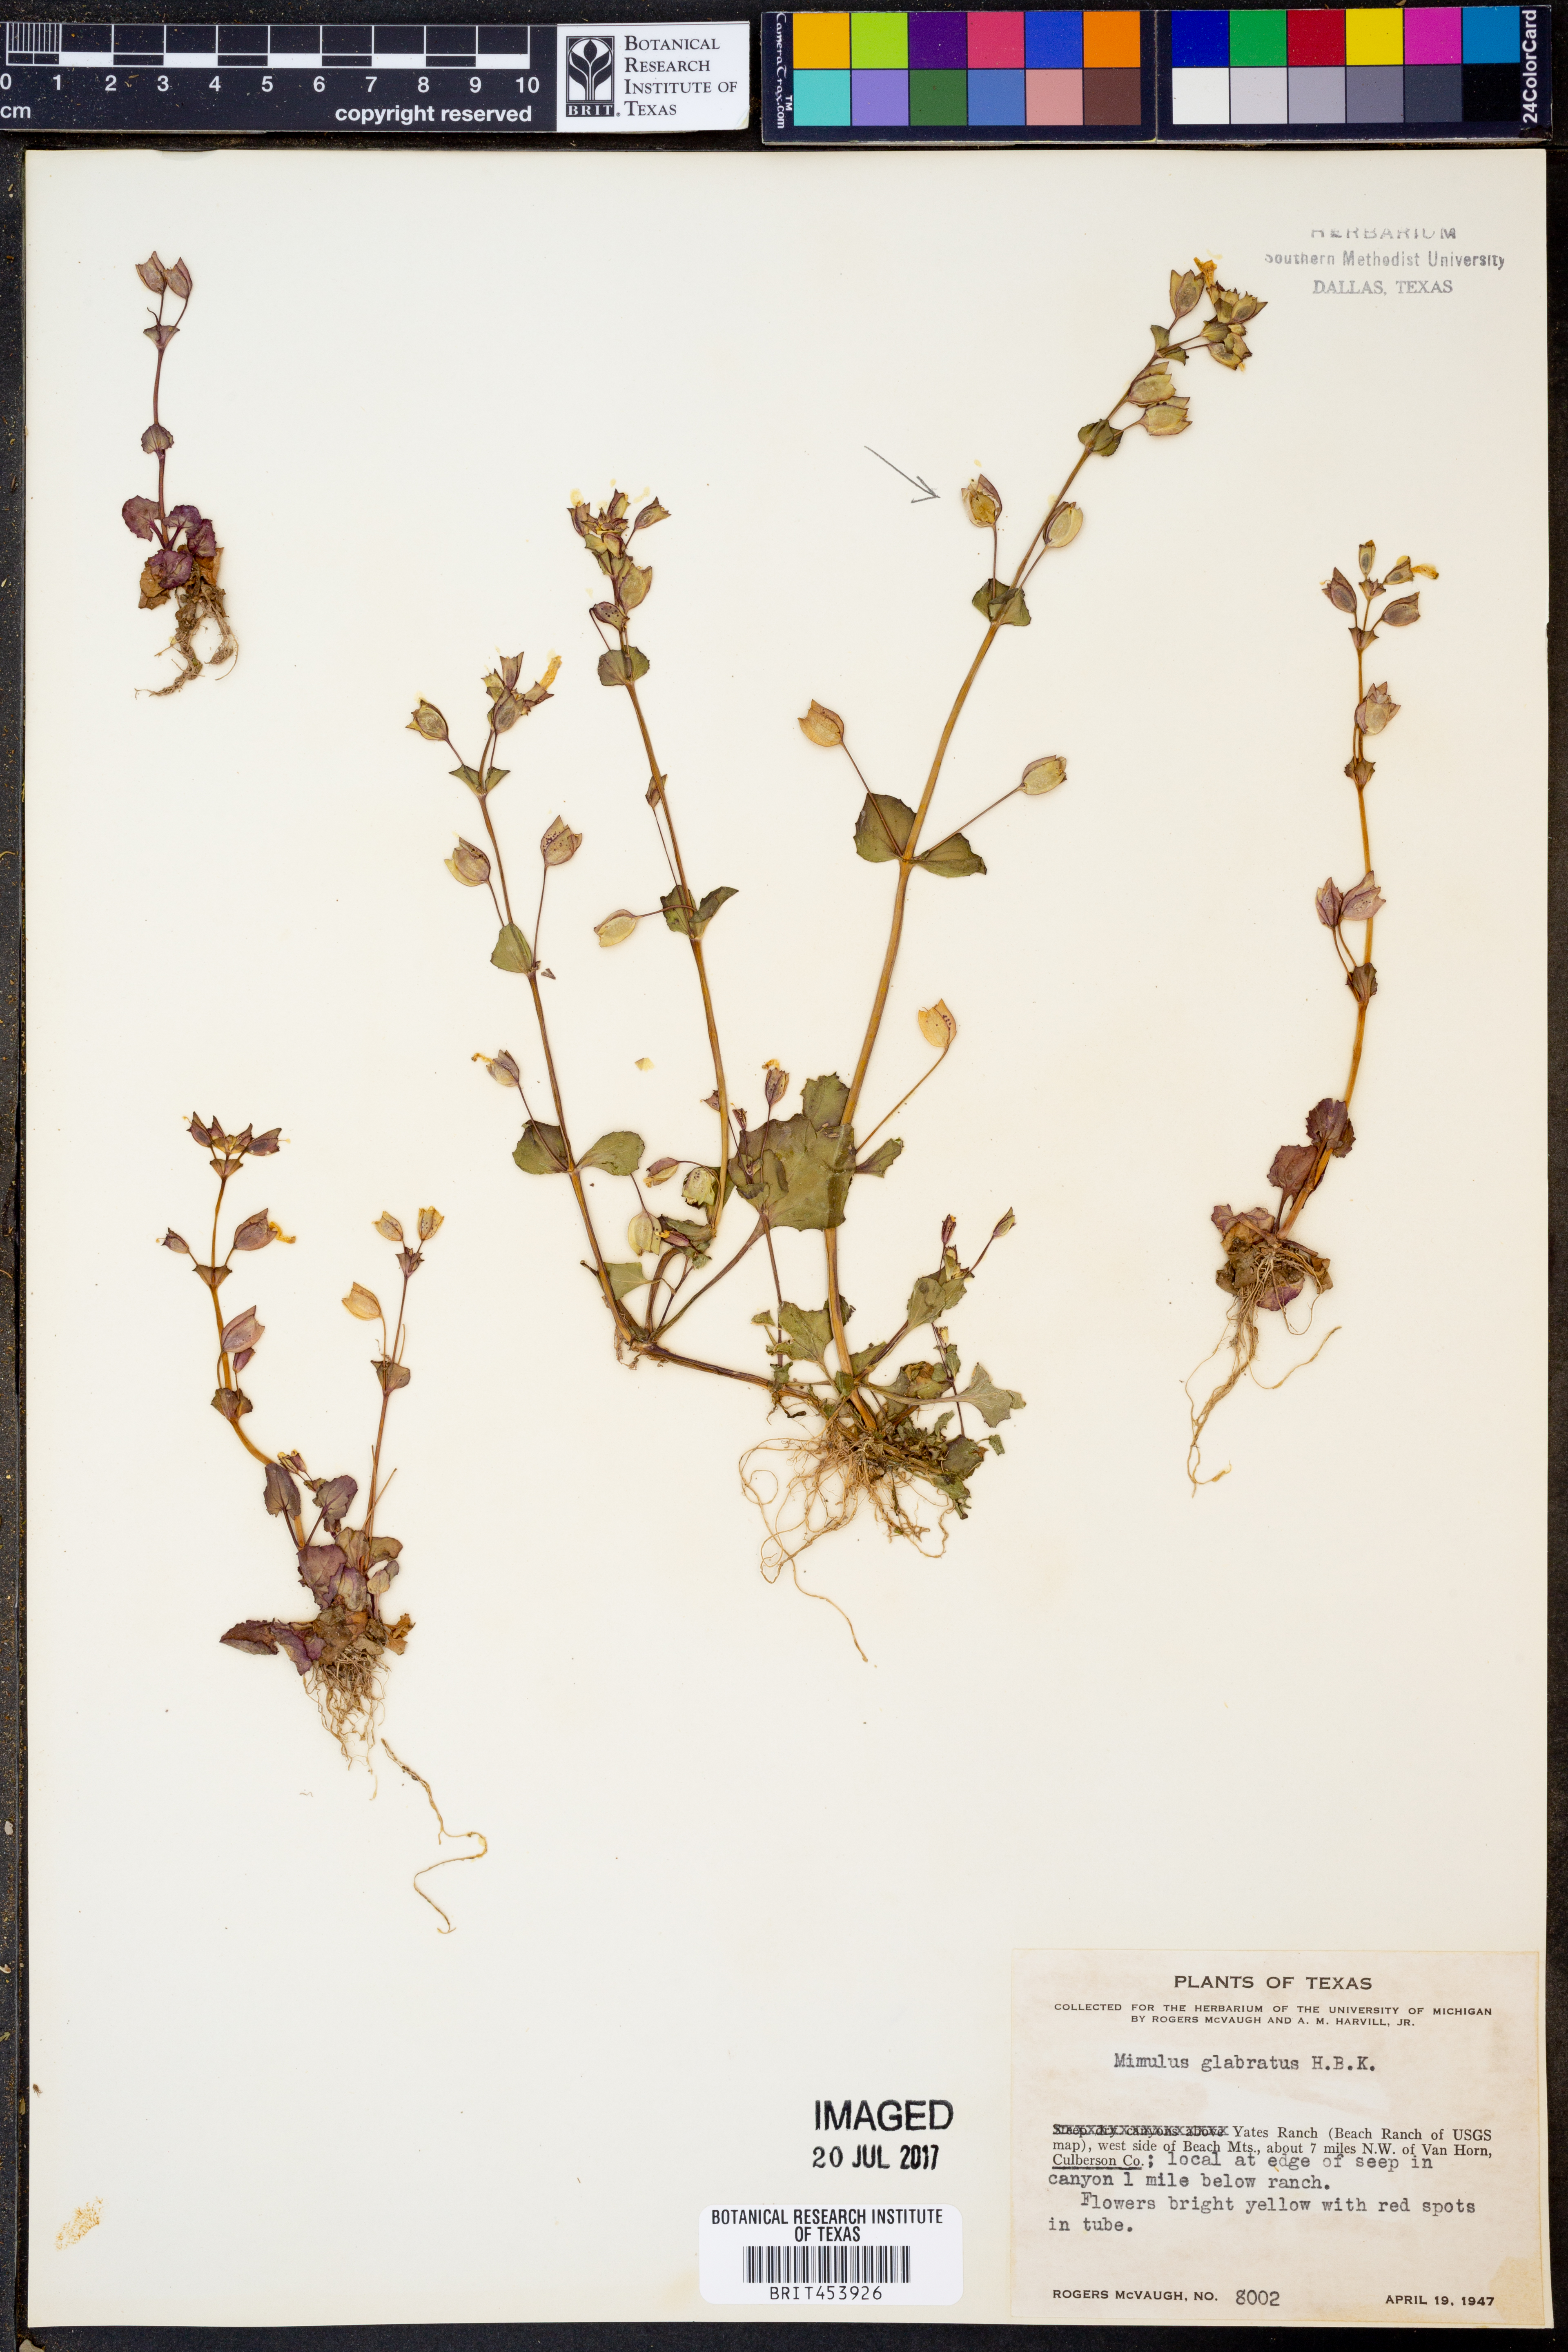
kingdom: Plantae
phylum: Tracheophyta
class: Magnoliopsida
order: Lamiales
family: Phrymaceae
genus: Erythranthe
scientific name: Erythranthe glabrata
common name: Round-leaved monkeyflower
